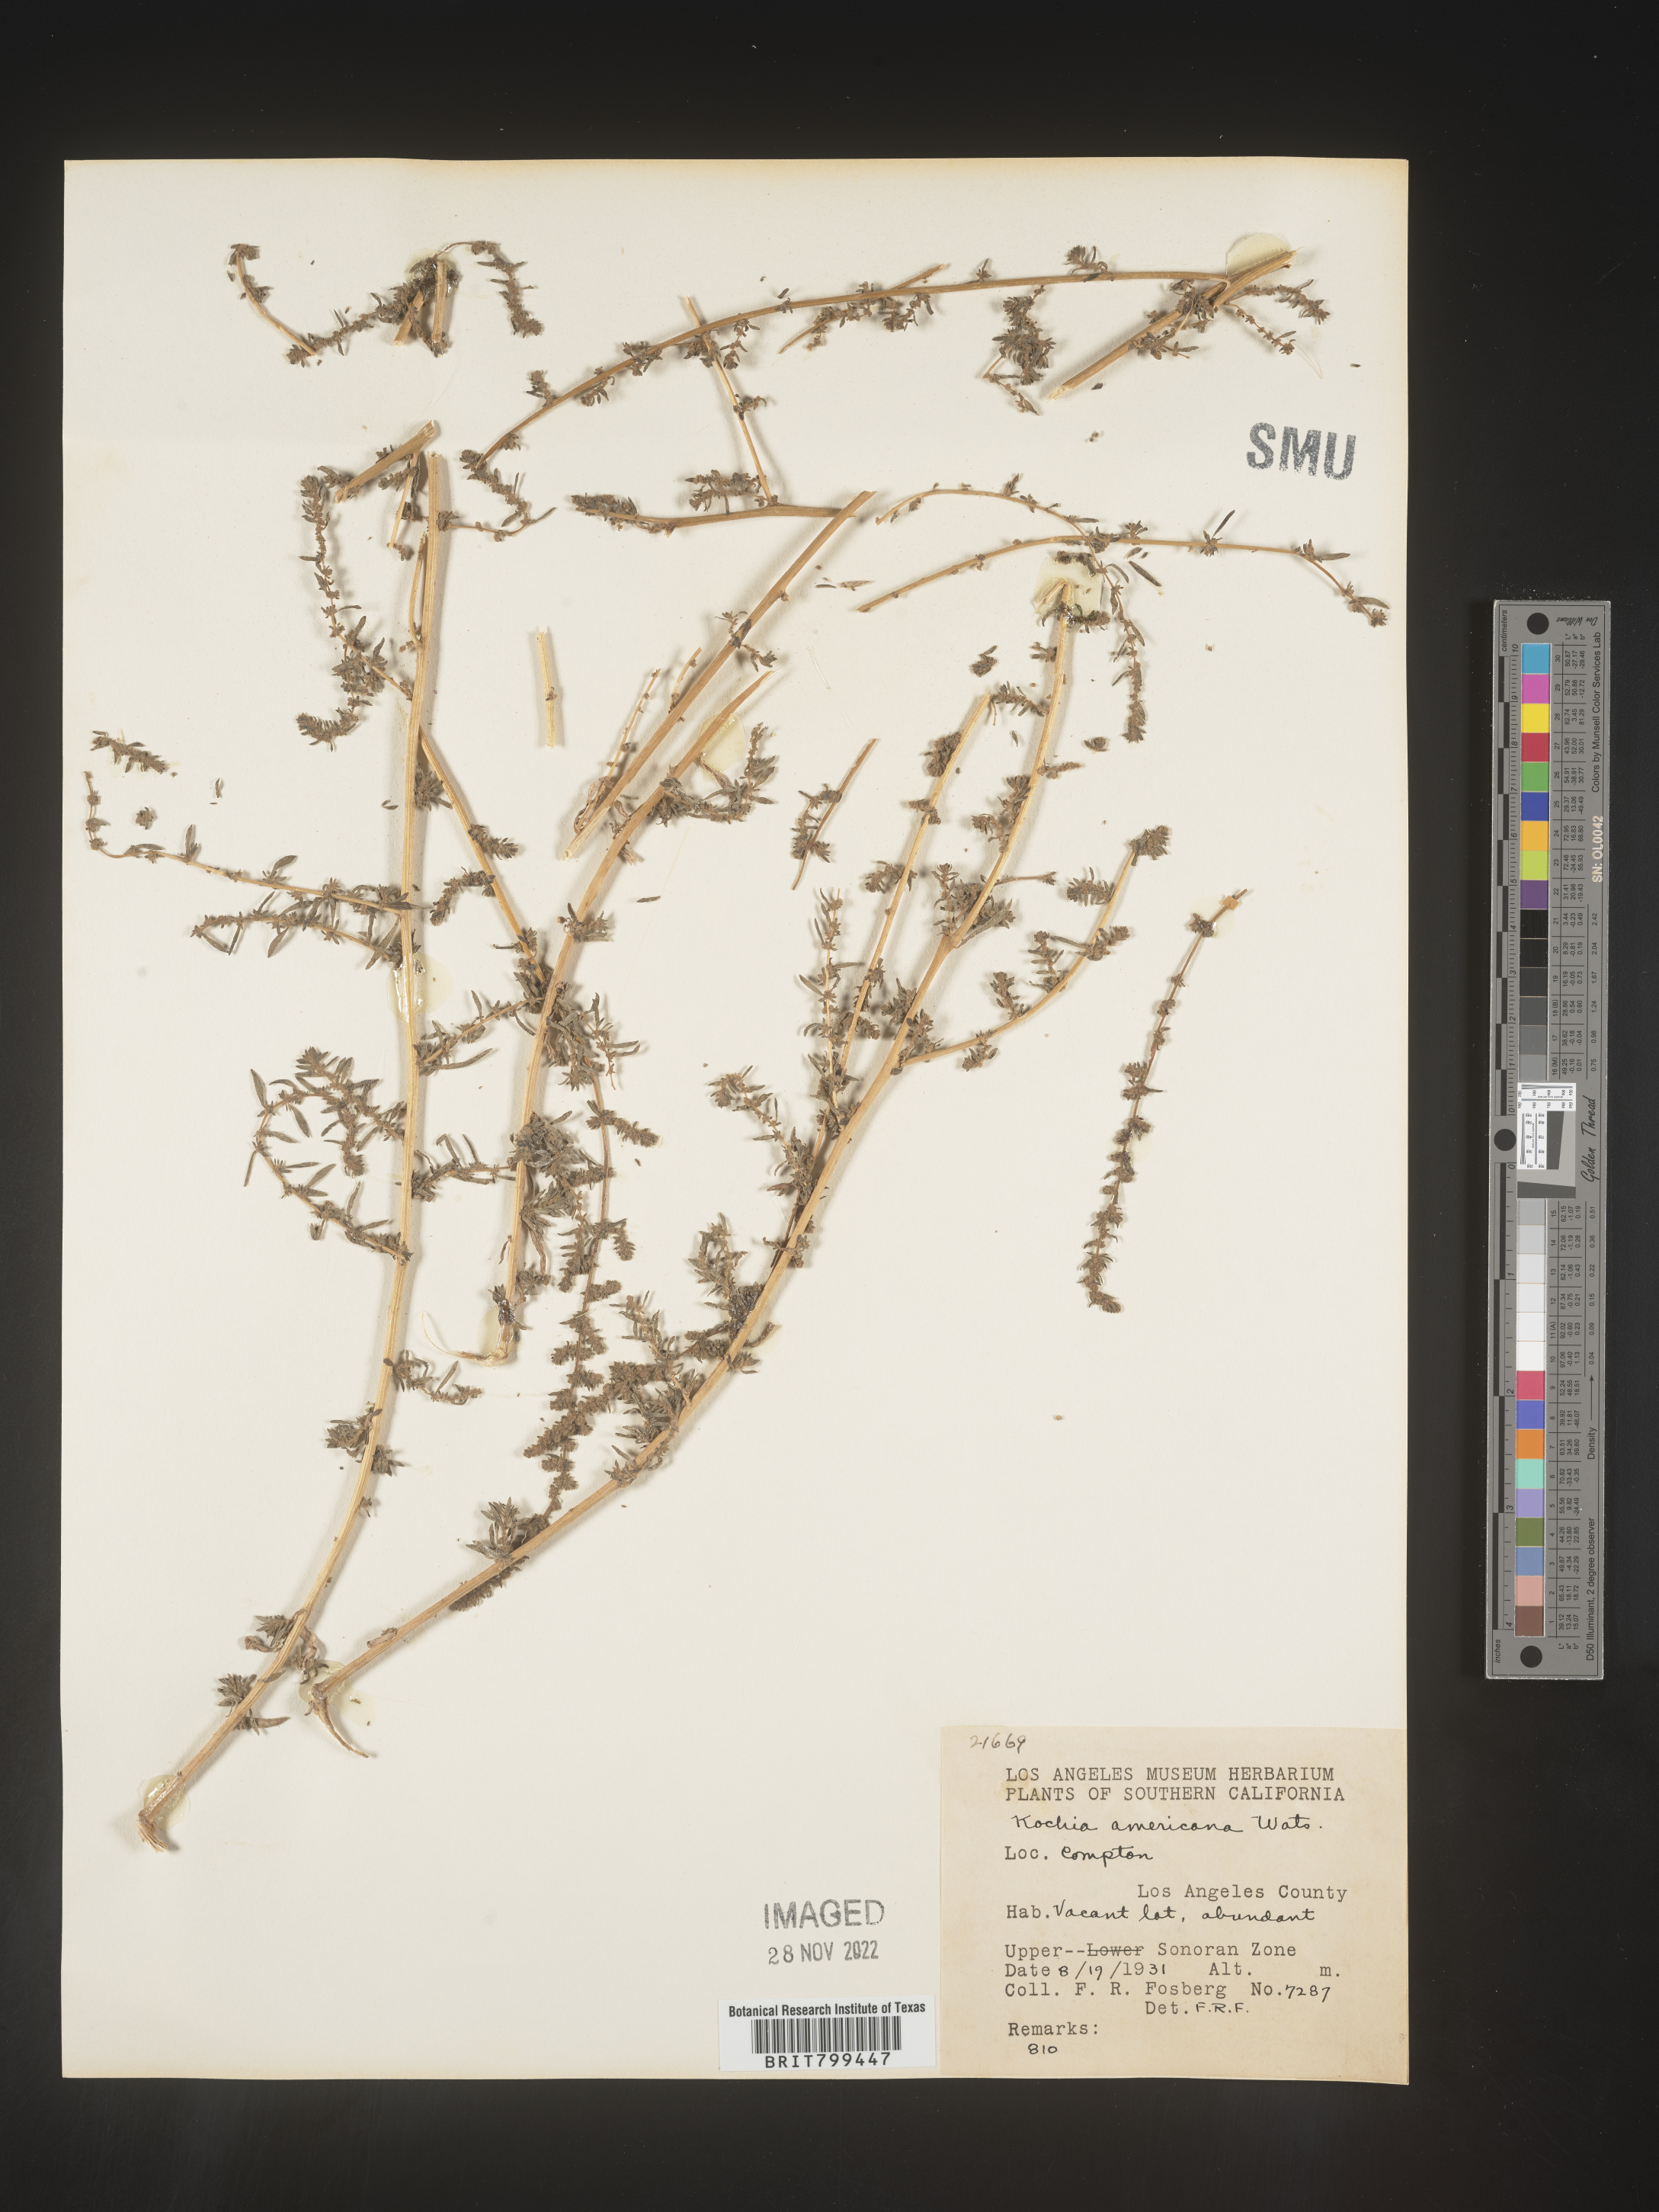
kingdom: Plantae
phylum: Tracheophyta
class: Magnoliopsida
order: Caryophyllales
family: Amaranthaceae
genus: Neokochia
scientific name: Neokochia americana
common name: Perennial summer-cypress
